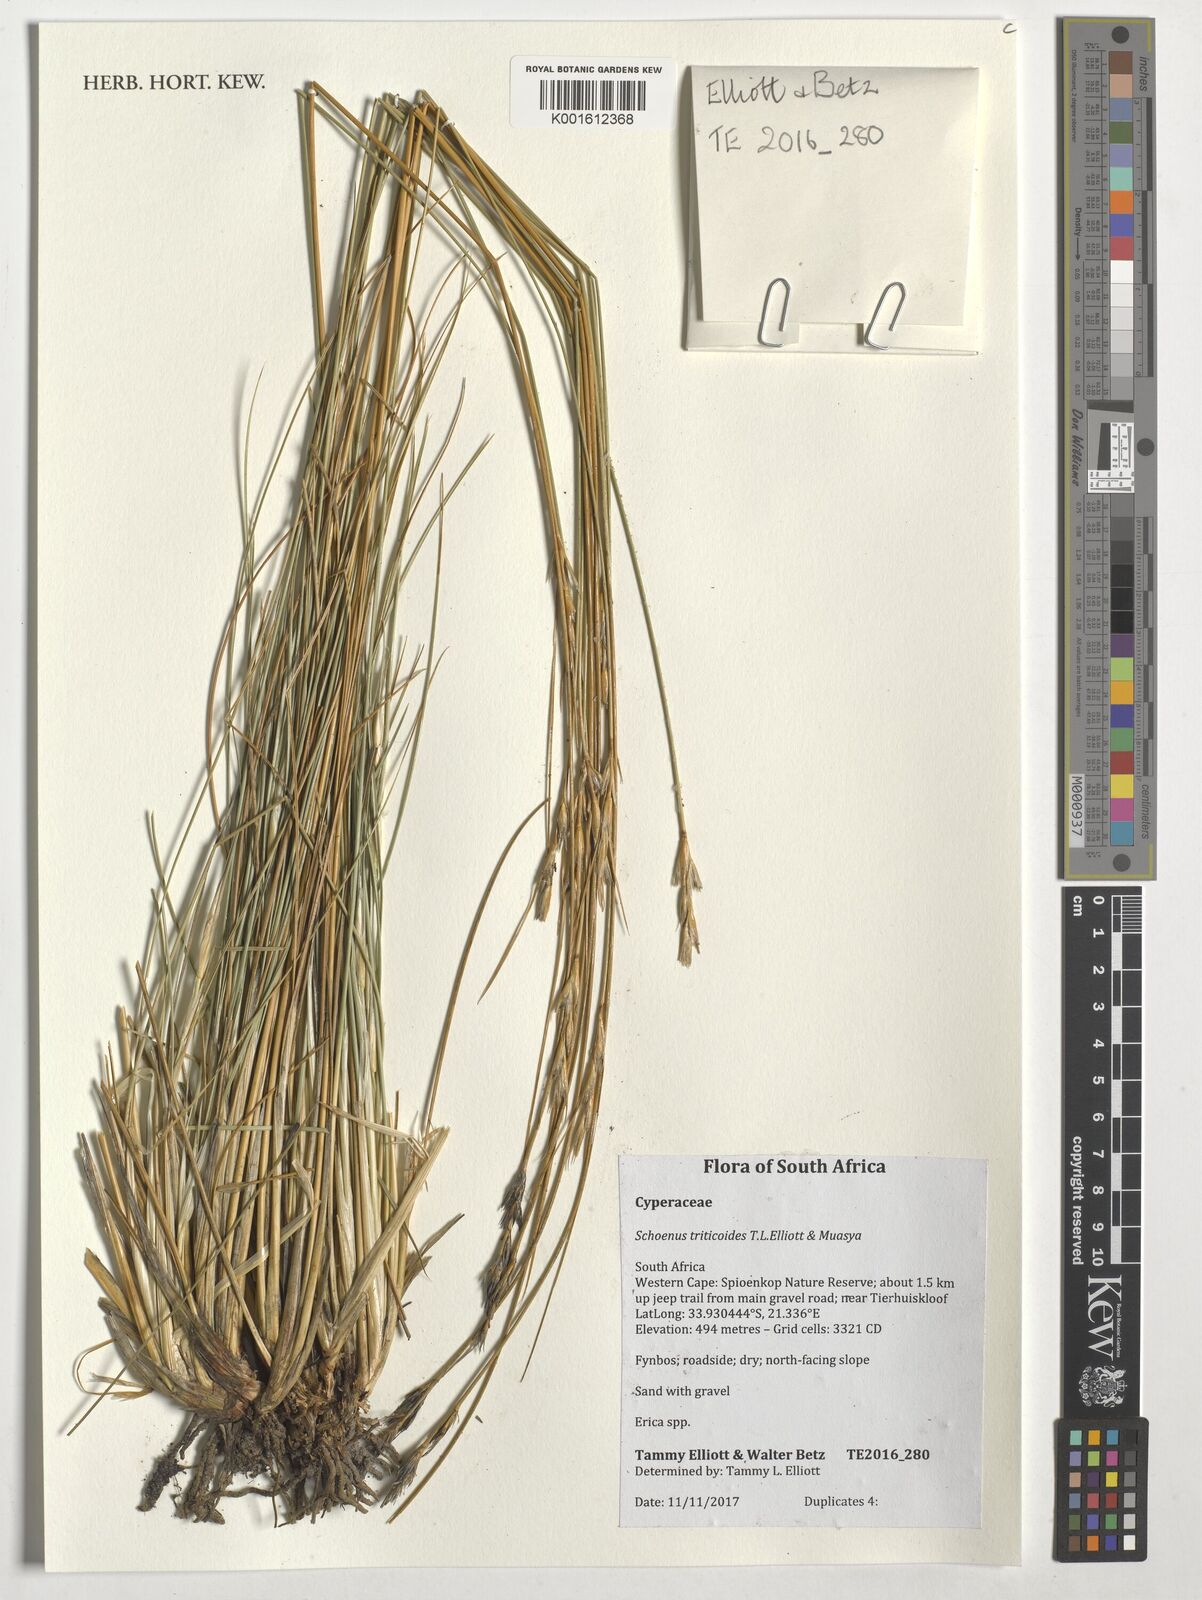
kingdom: Plantae
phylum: Tracheophyta
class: Liliopsida
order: Poales
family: Cyperaceae
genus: Schoenus
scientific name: Schoenus triticoides
